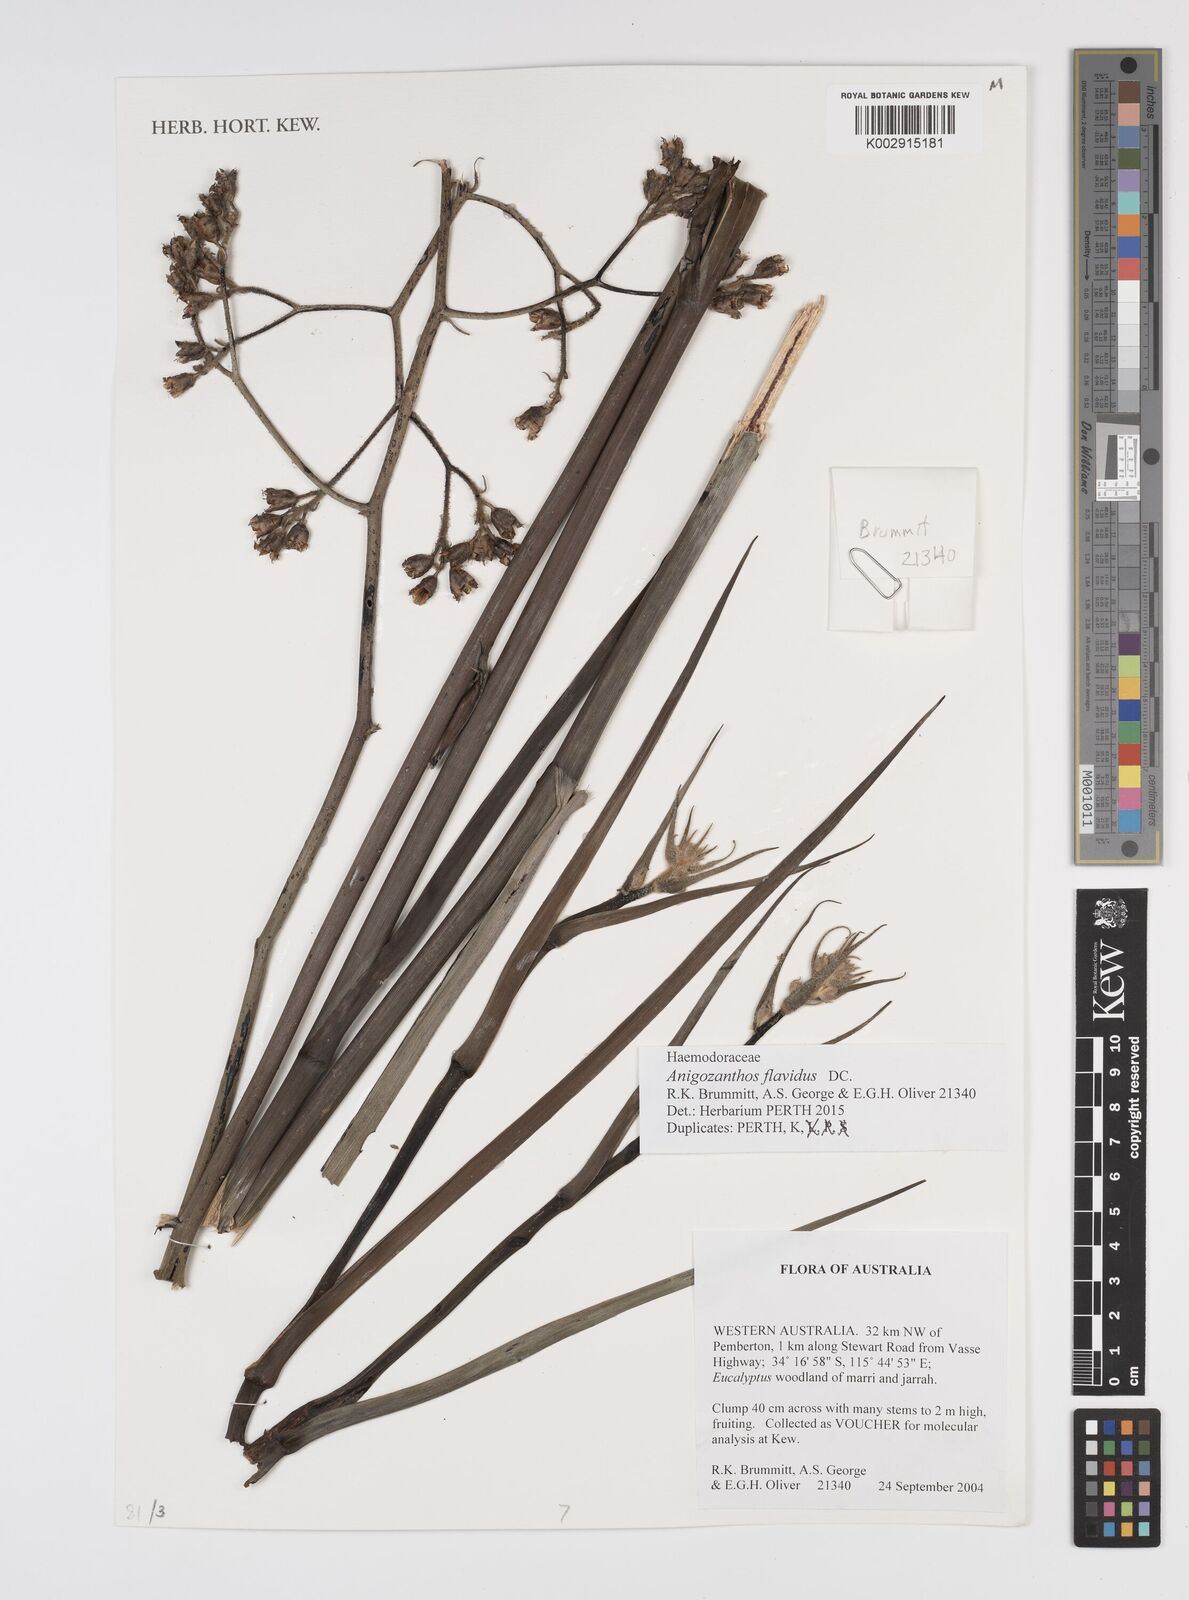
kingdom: Plantae
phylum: Tracheophyta
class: Liliopsida
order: Commelinales
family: Haemodoraceae
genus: Anigozanthos
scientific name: Anigozanthos flavidus
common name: Evergreen kangaroo-paw
